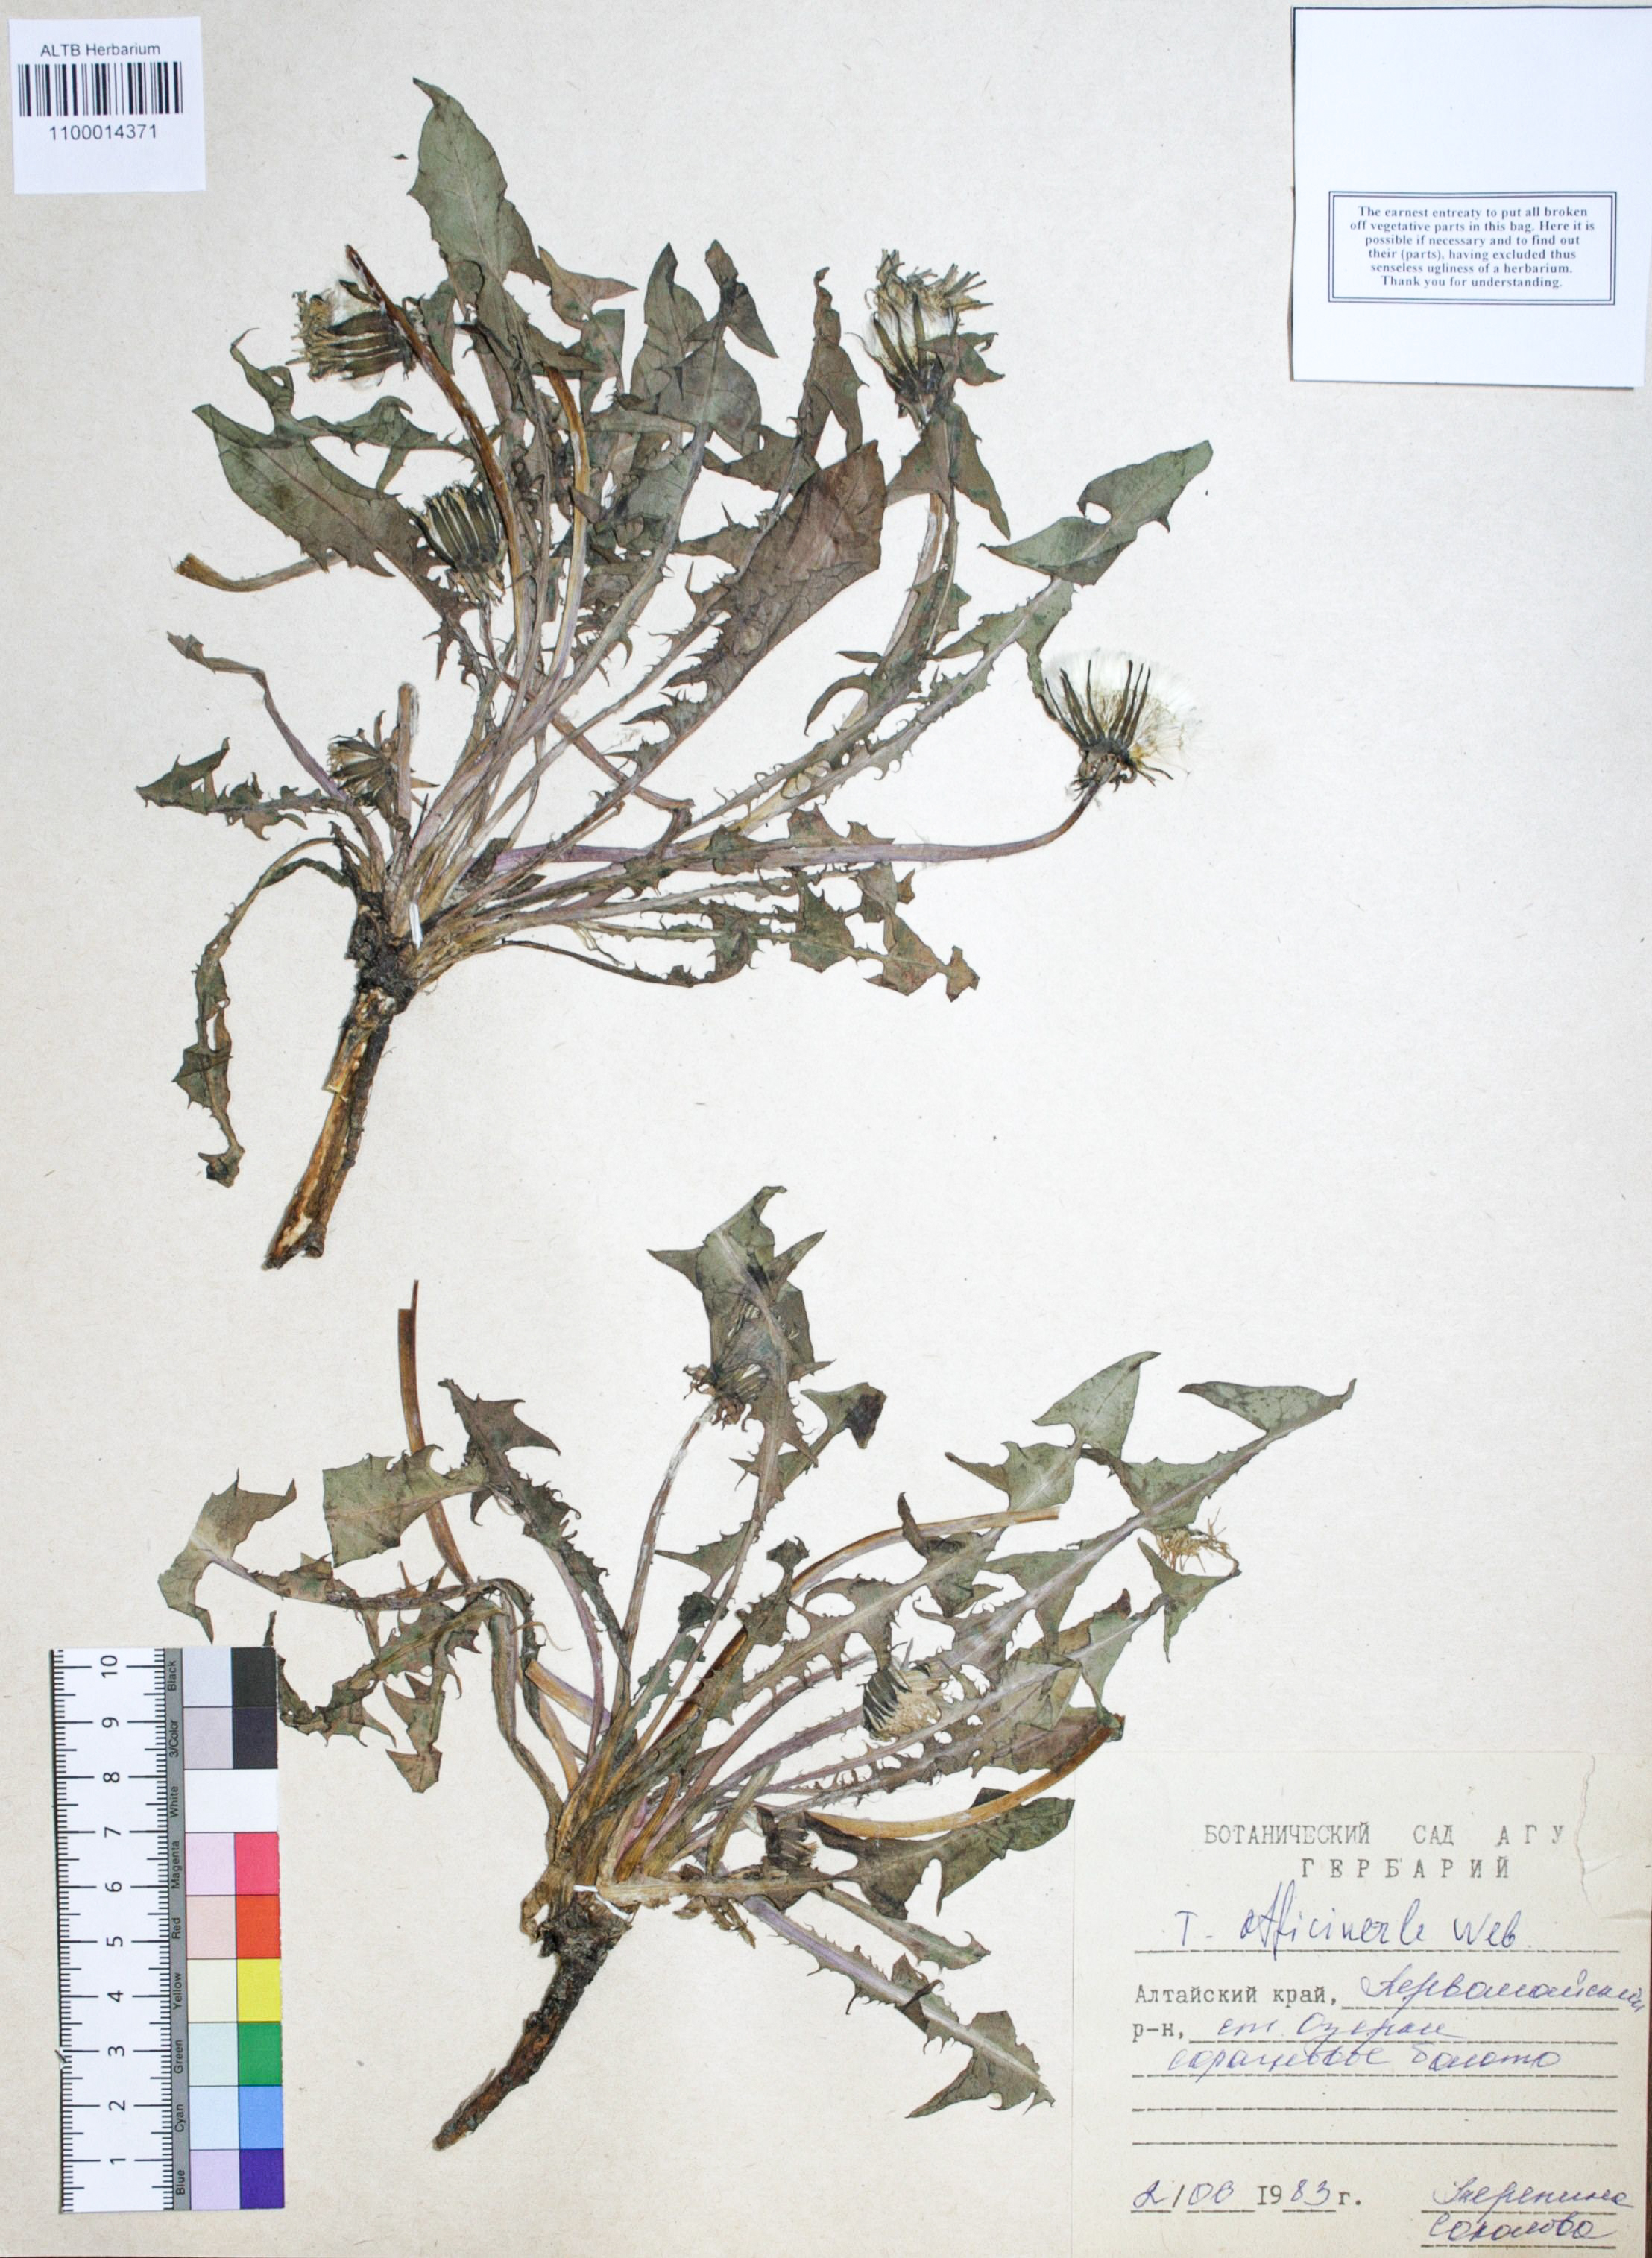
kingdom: Plantae
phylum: Tracheophyta
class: Magnoliopsida
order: Asterales
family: Asteraceae
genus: Taraxacum
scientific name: Taraxacum officinale
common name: Common dandelion
